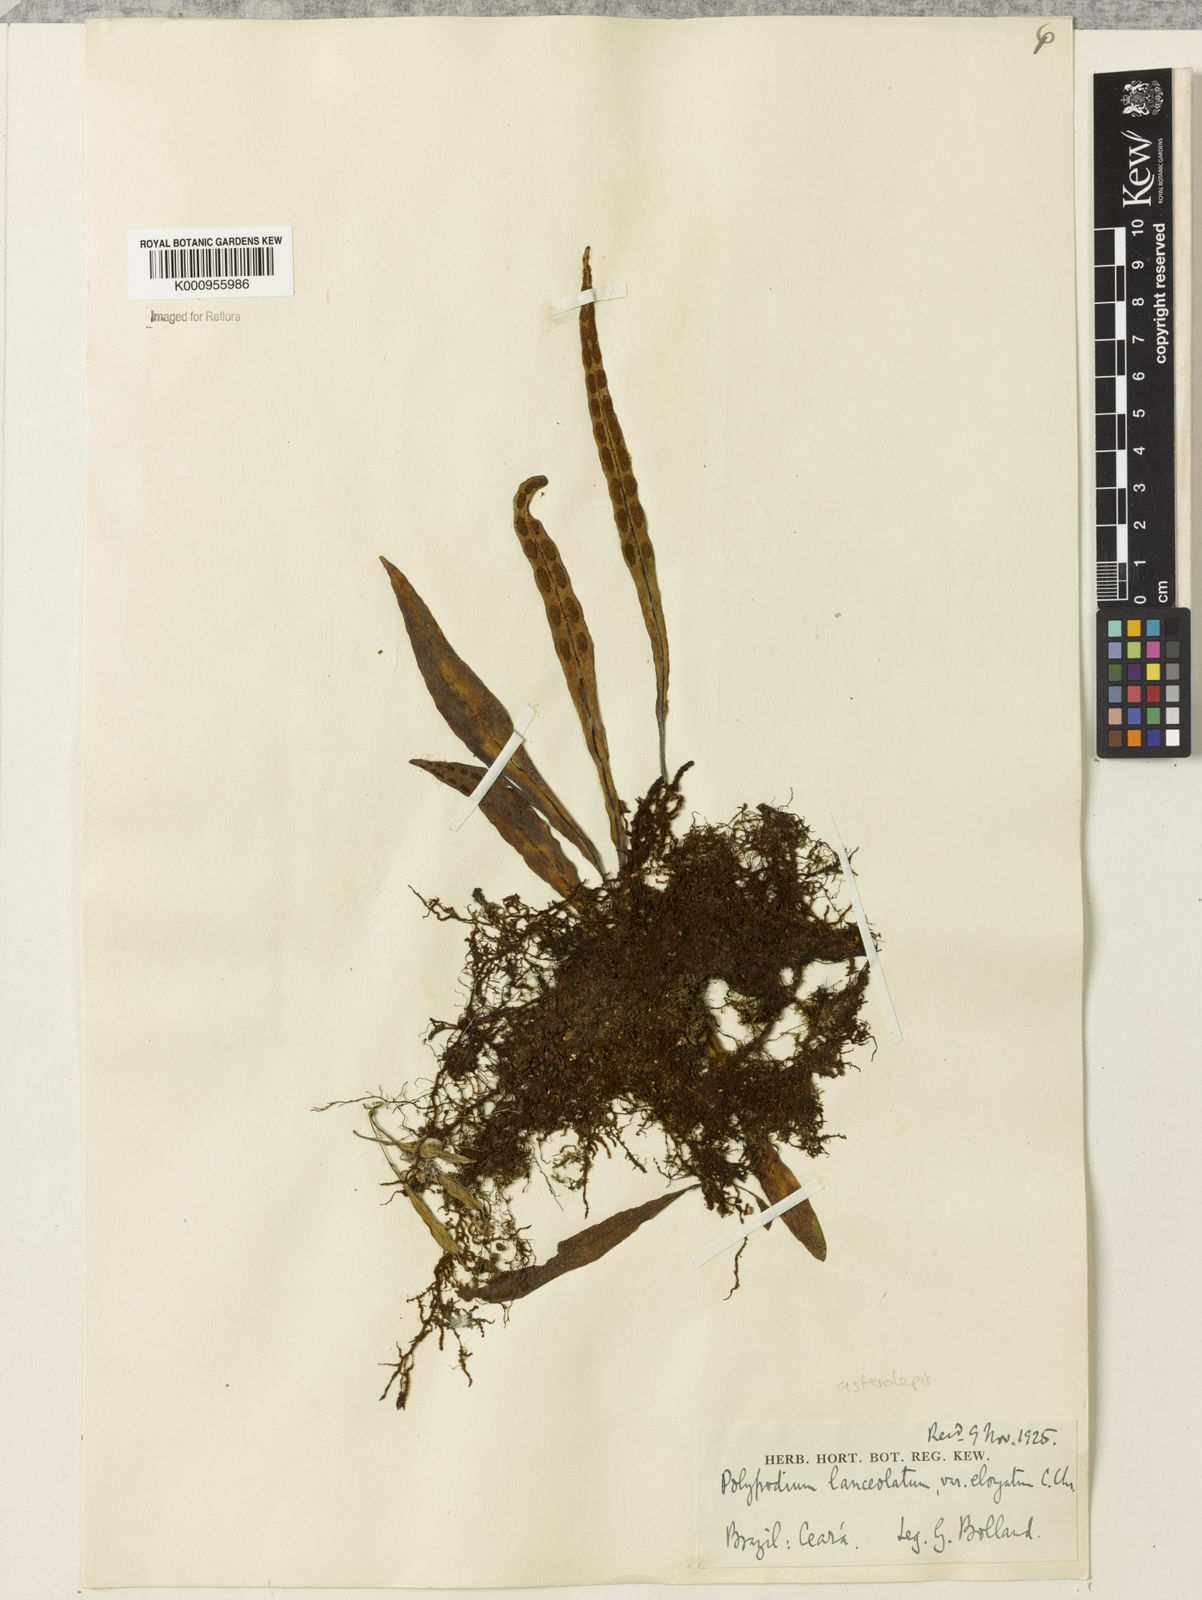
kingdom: Plantae
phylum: Tracheophyta
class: Polypodiopsida
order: Polypodiales
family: Polypodiaceae
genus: Pleopeltis
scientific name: Pleopeltis astrolepis
